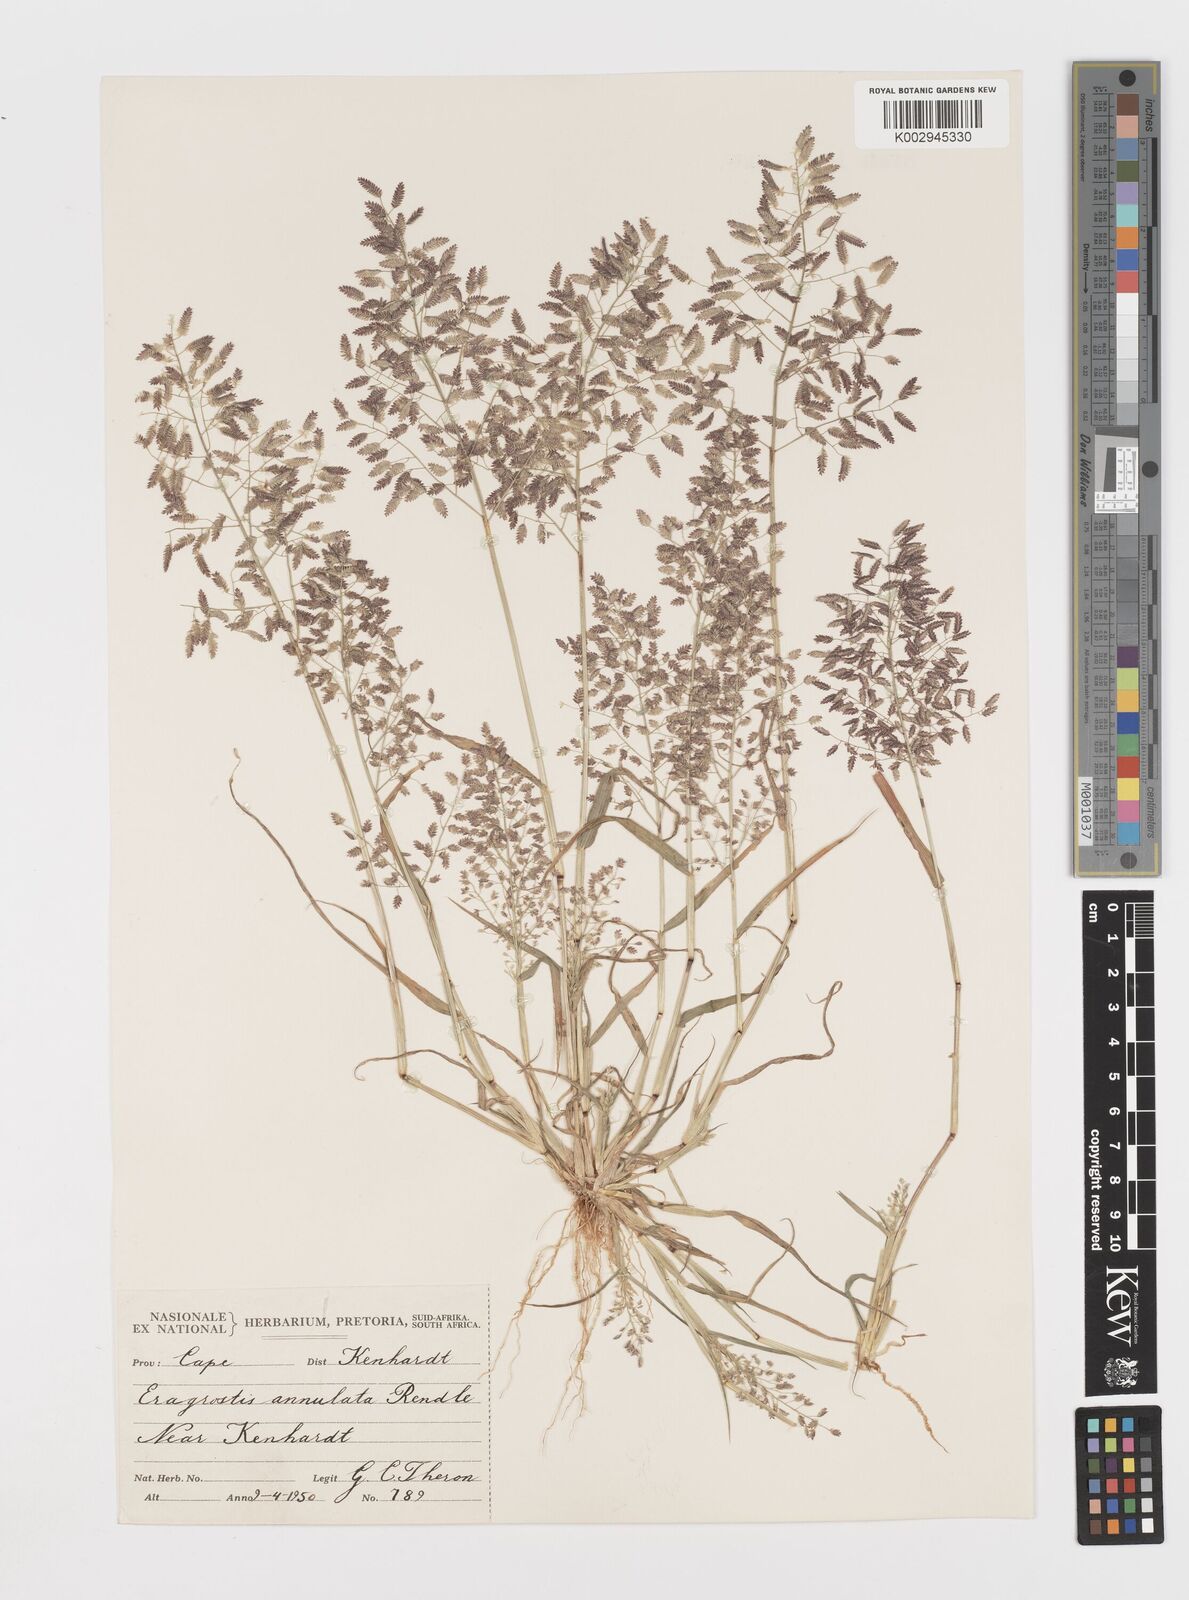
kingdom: Plantae
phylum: Tracheophyta
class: Liliopsida
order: Poales
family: Poaceae
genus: Eragrostis
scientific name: Eragrostis annulata
